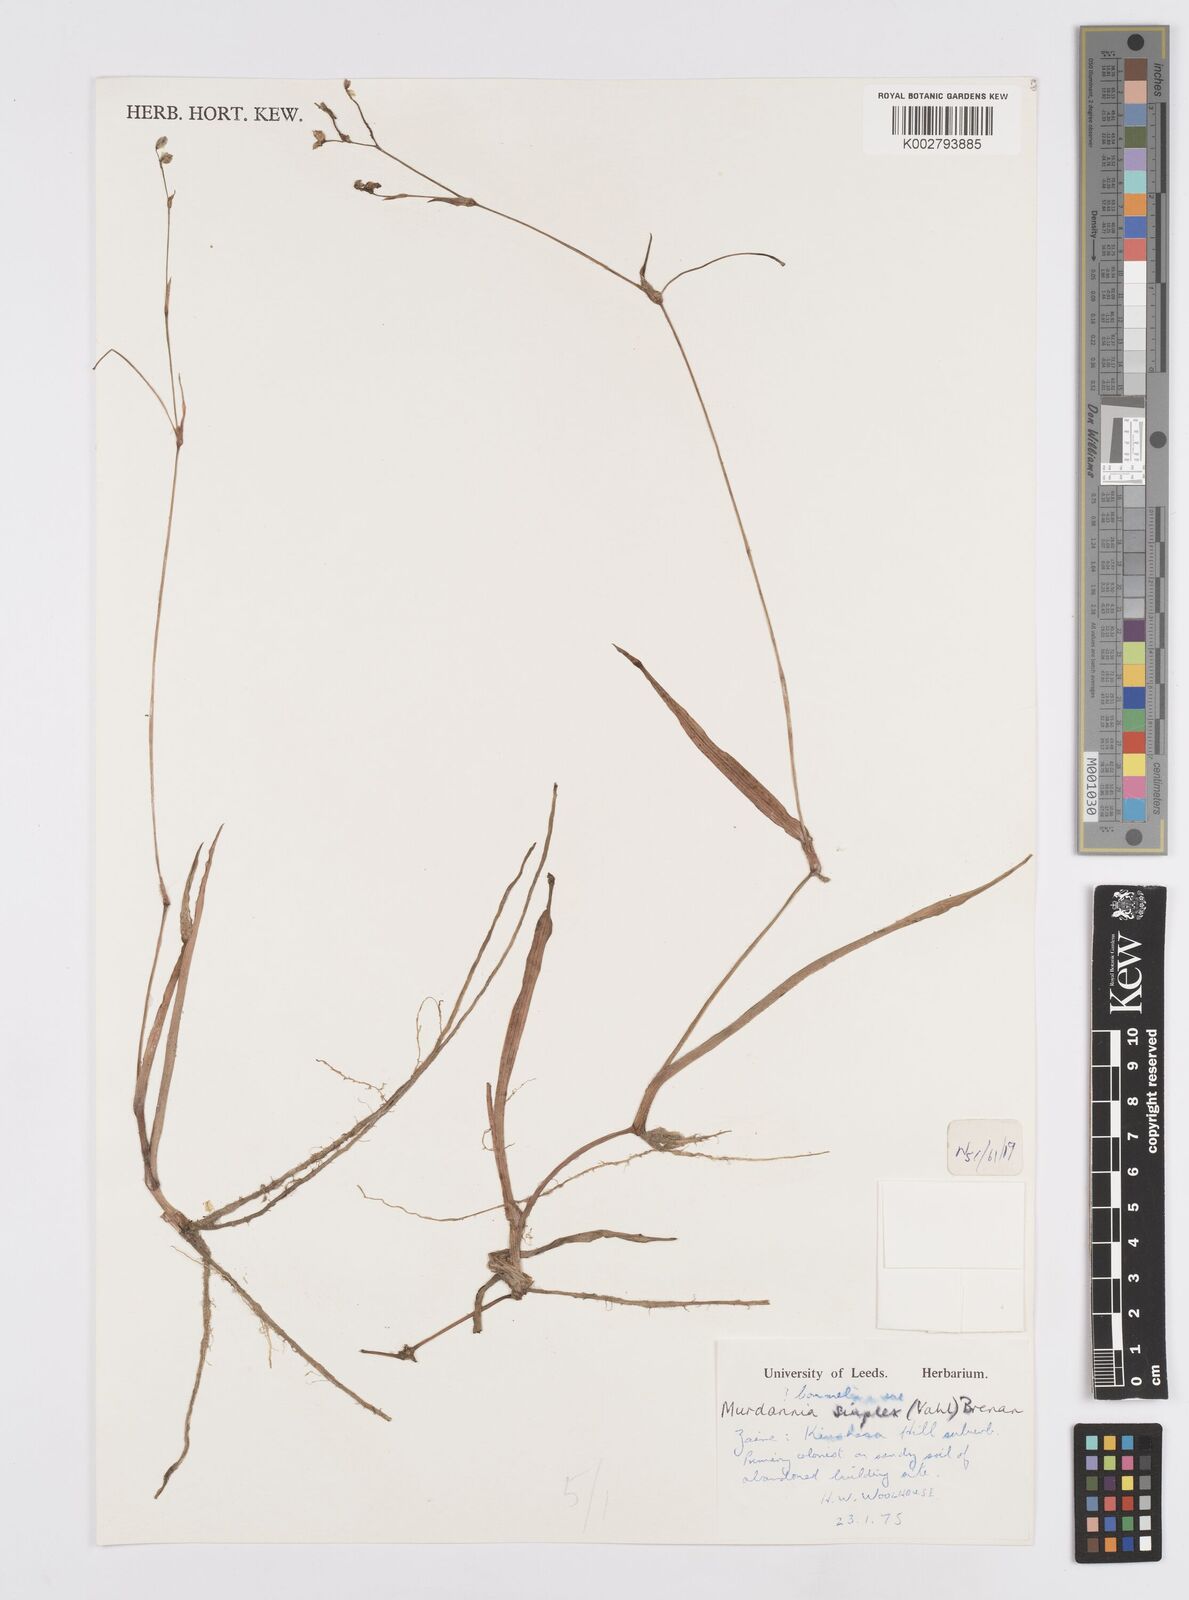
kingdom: Plantae
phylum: Tracheophyta
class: Liliopsida
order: Commelinales
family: Commelinaceae
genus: Murdannia
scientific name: Murdannia simplex
